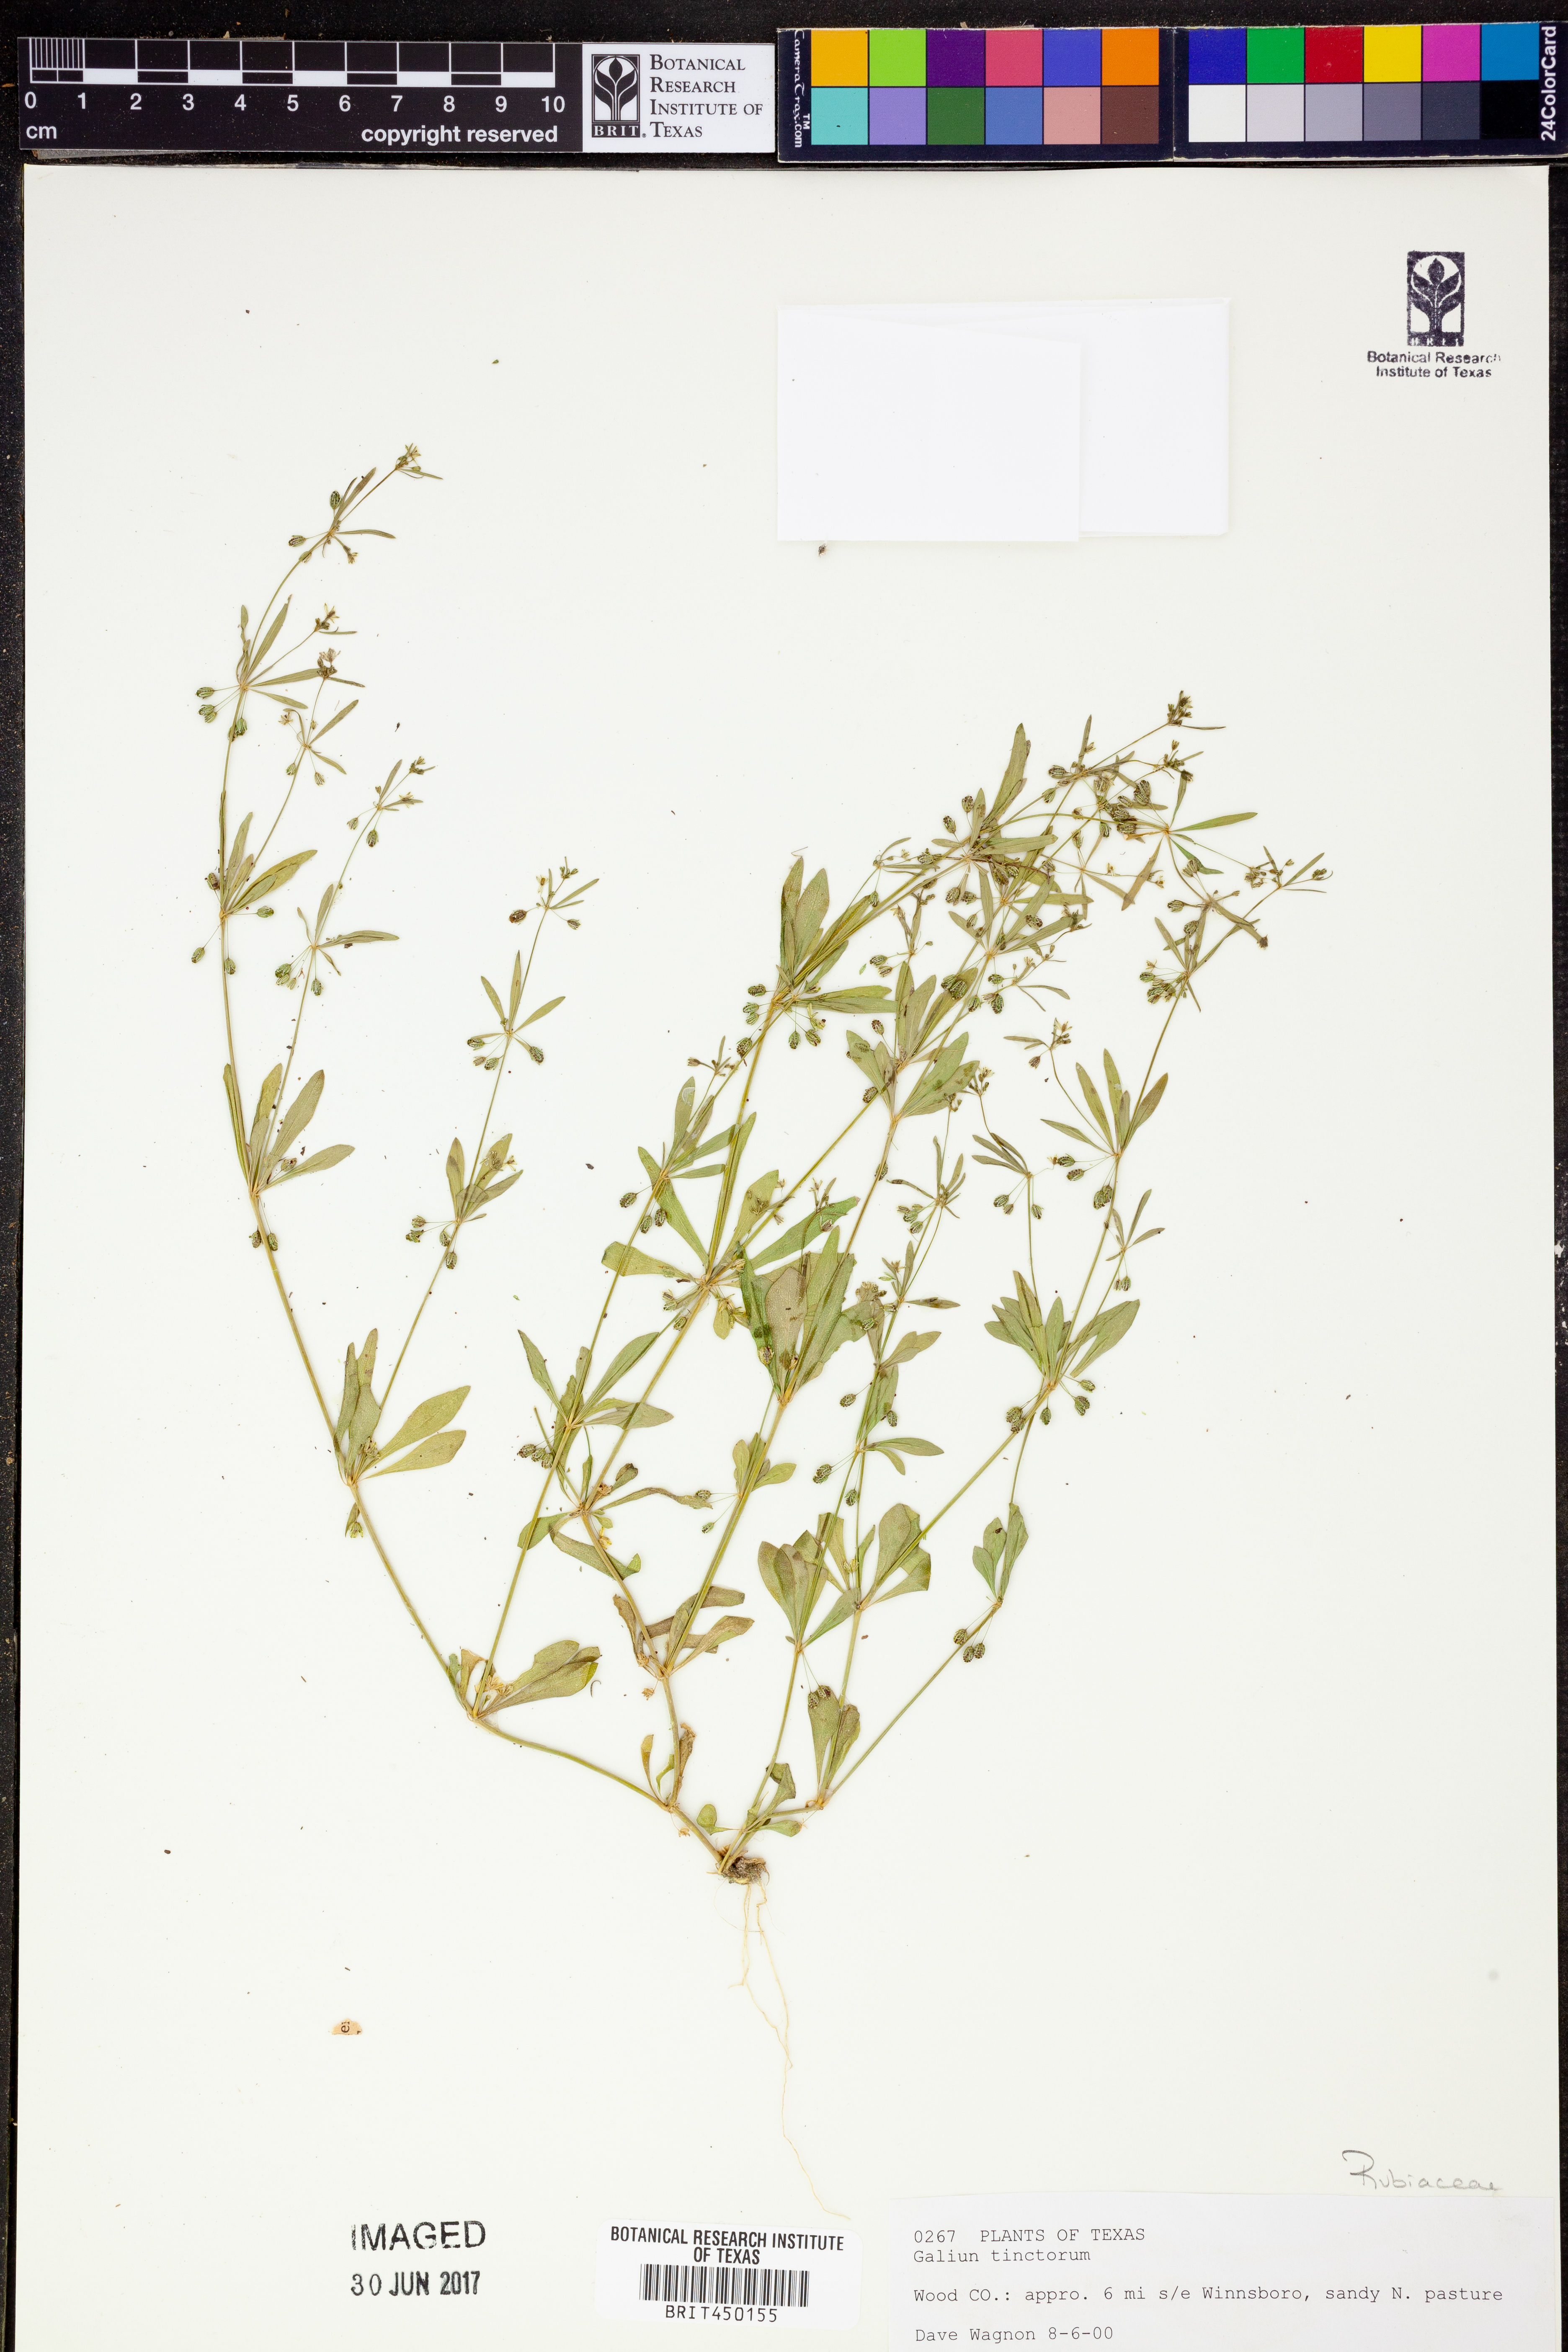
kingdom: Plantae
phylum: Tracheophyta
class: Magnoliopsida
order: Gentianales
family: Rubiaceae
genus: Asperula
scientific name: Asperula tinctoria
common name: Dyer's woodruff
